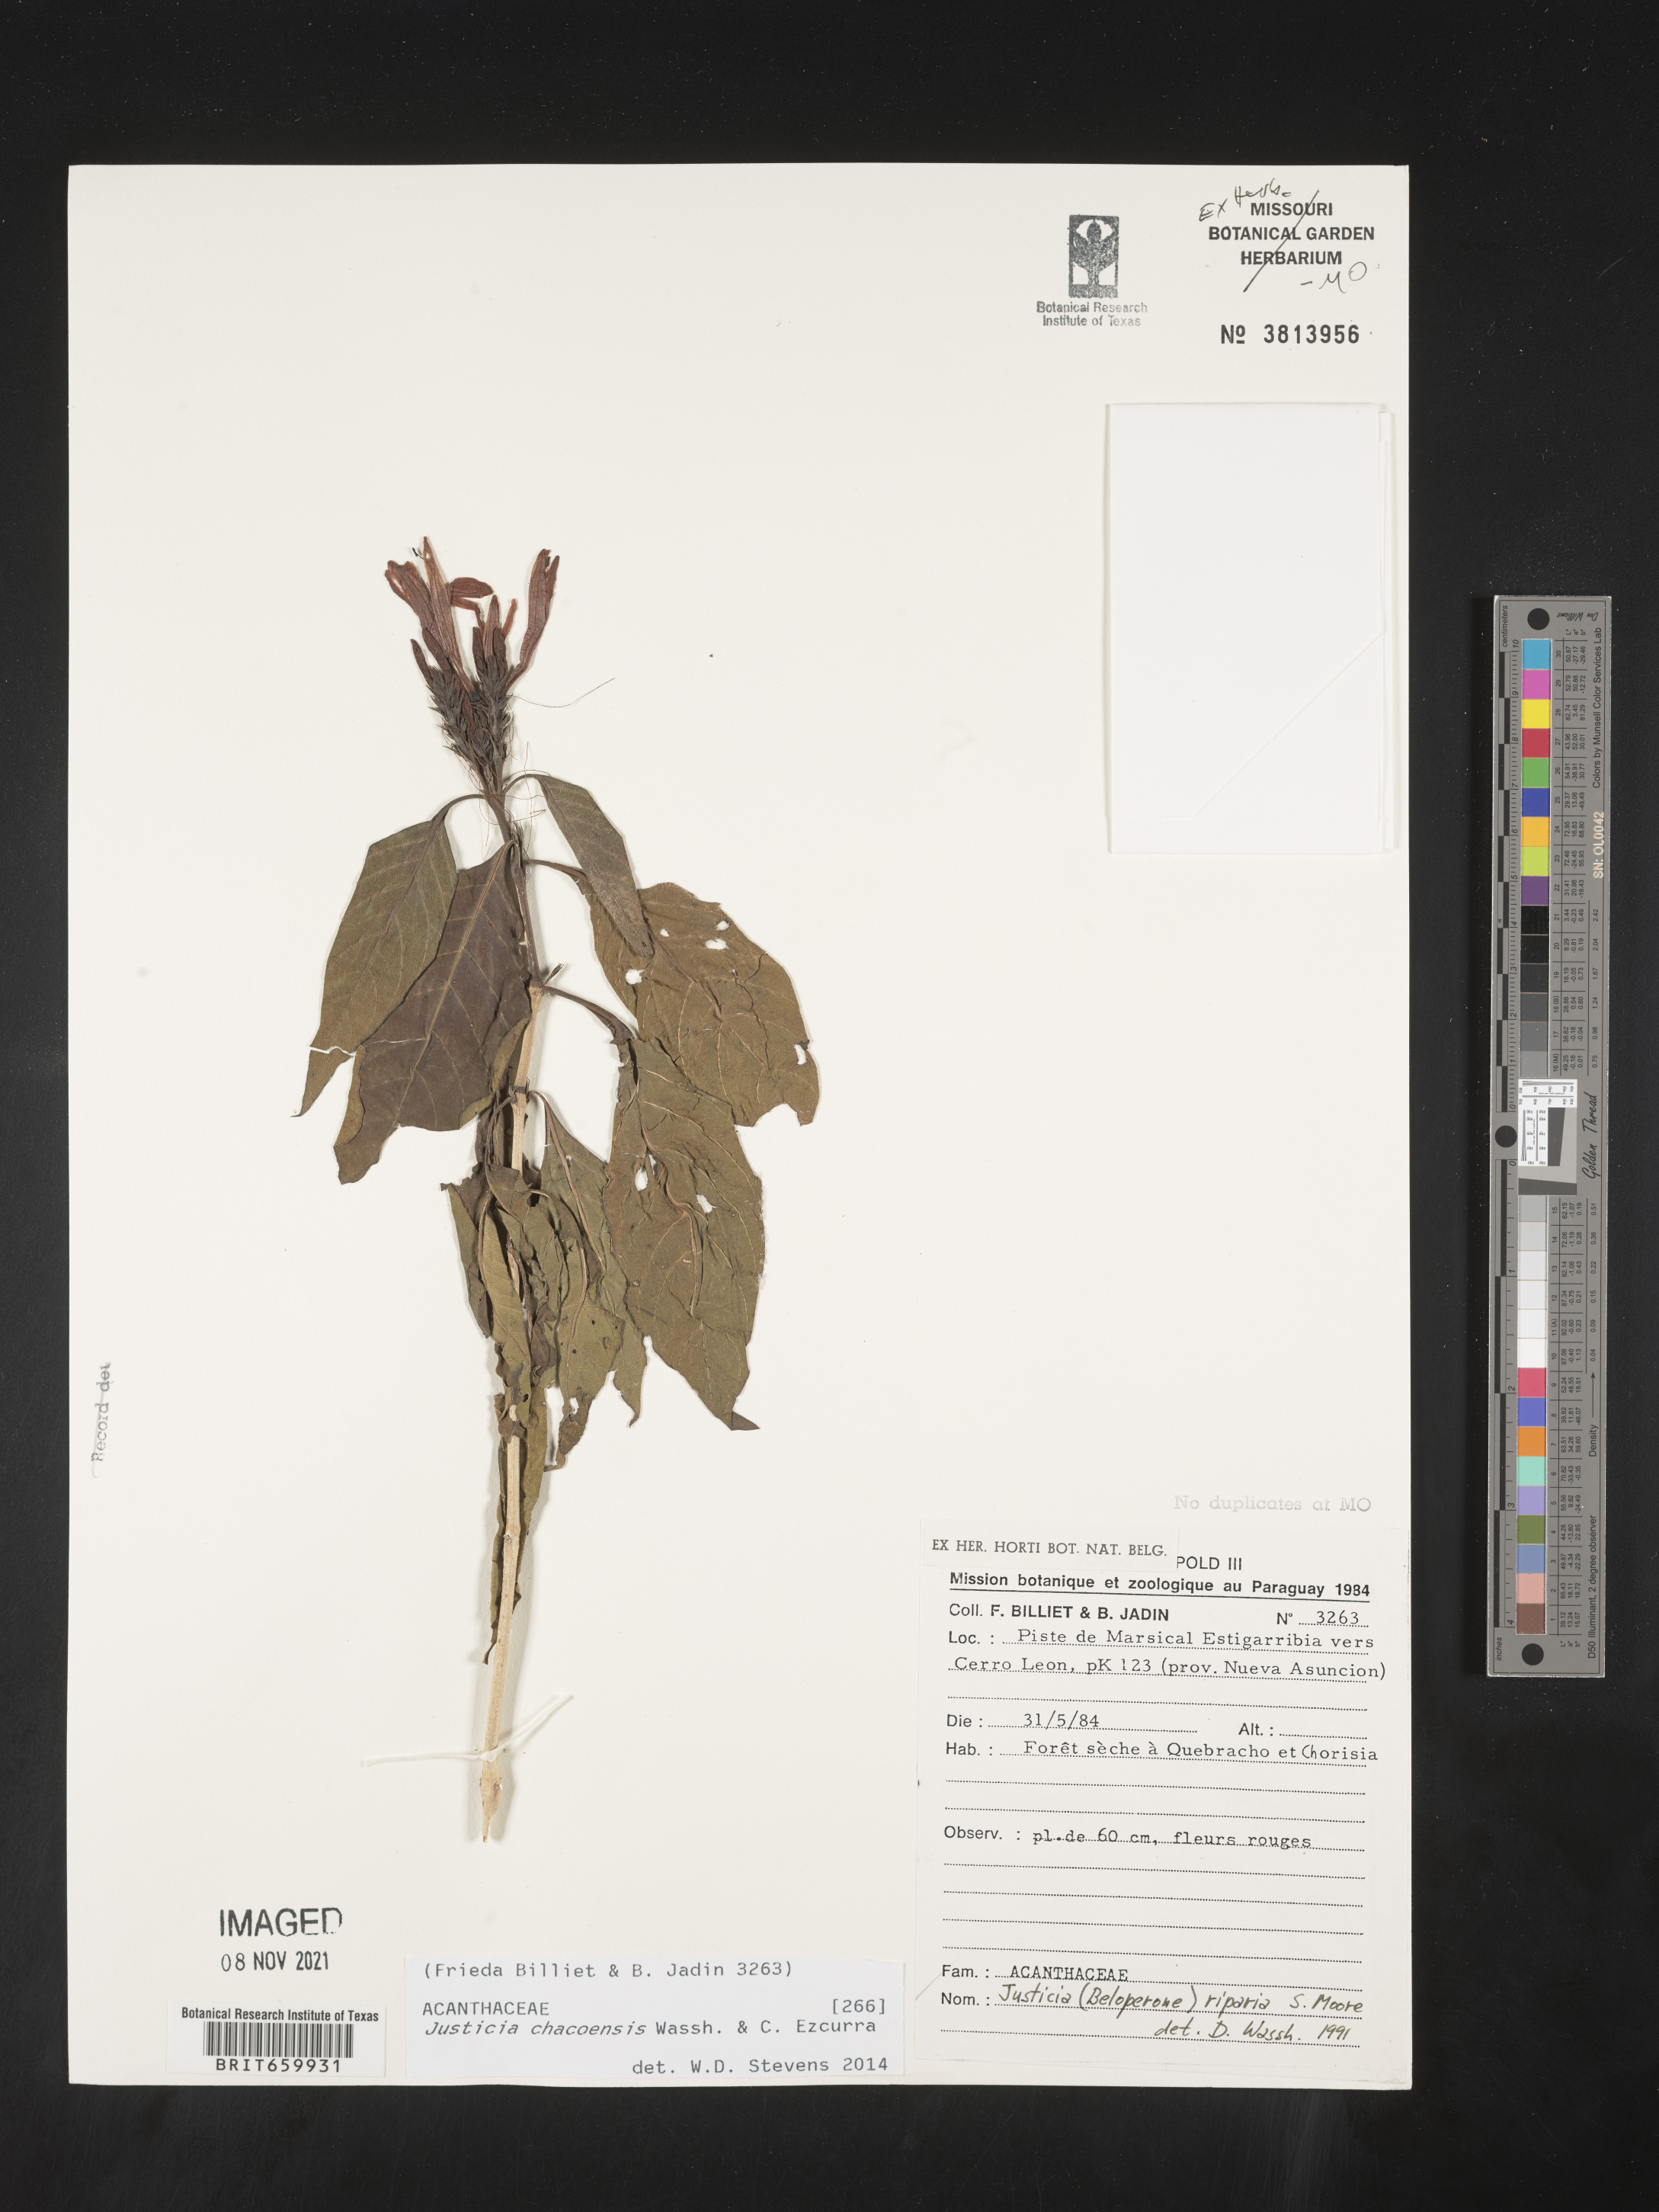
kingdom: Plantae
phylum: Tracheophyta
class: Magnoliopsida
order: Lamiales
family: Acanthaceae
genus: Justicia
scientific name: Justicia chacoensis
